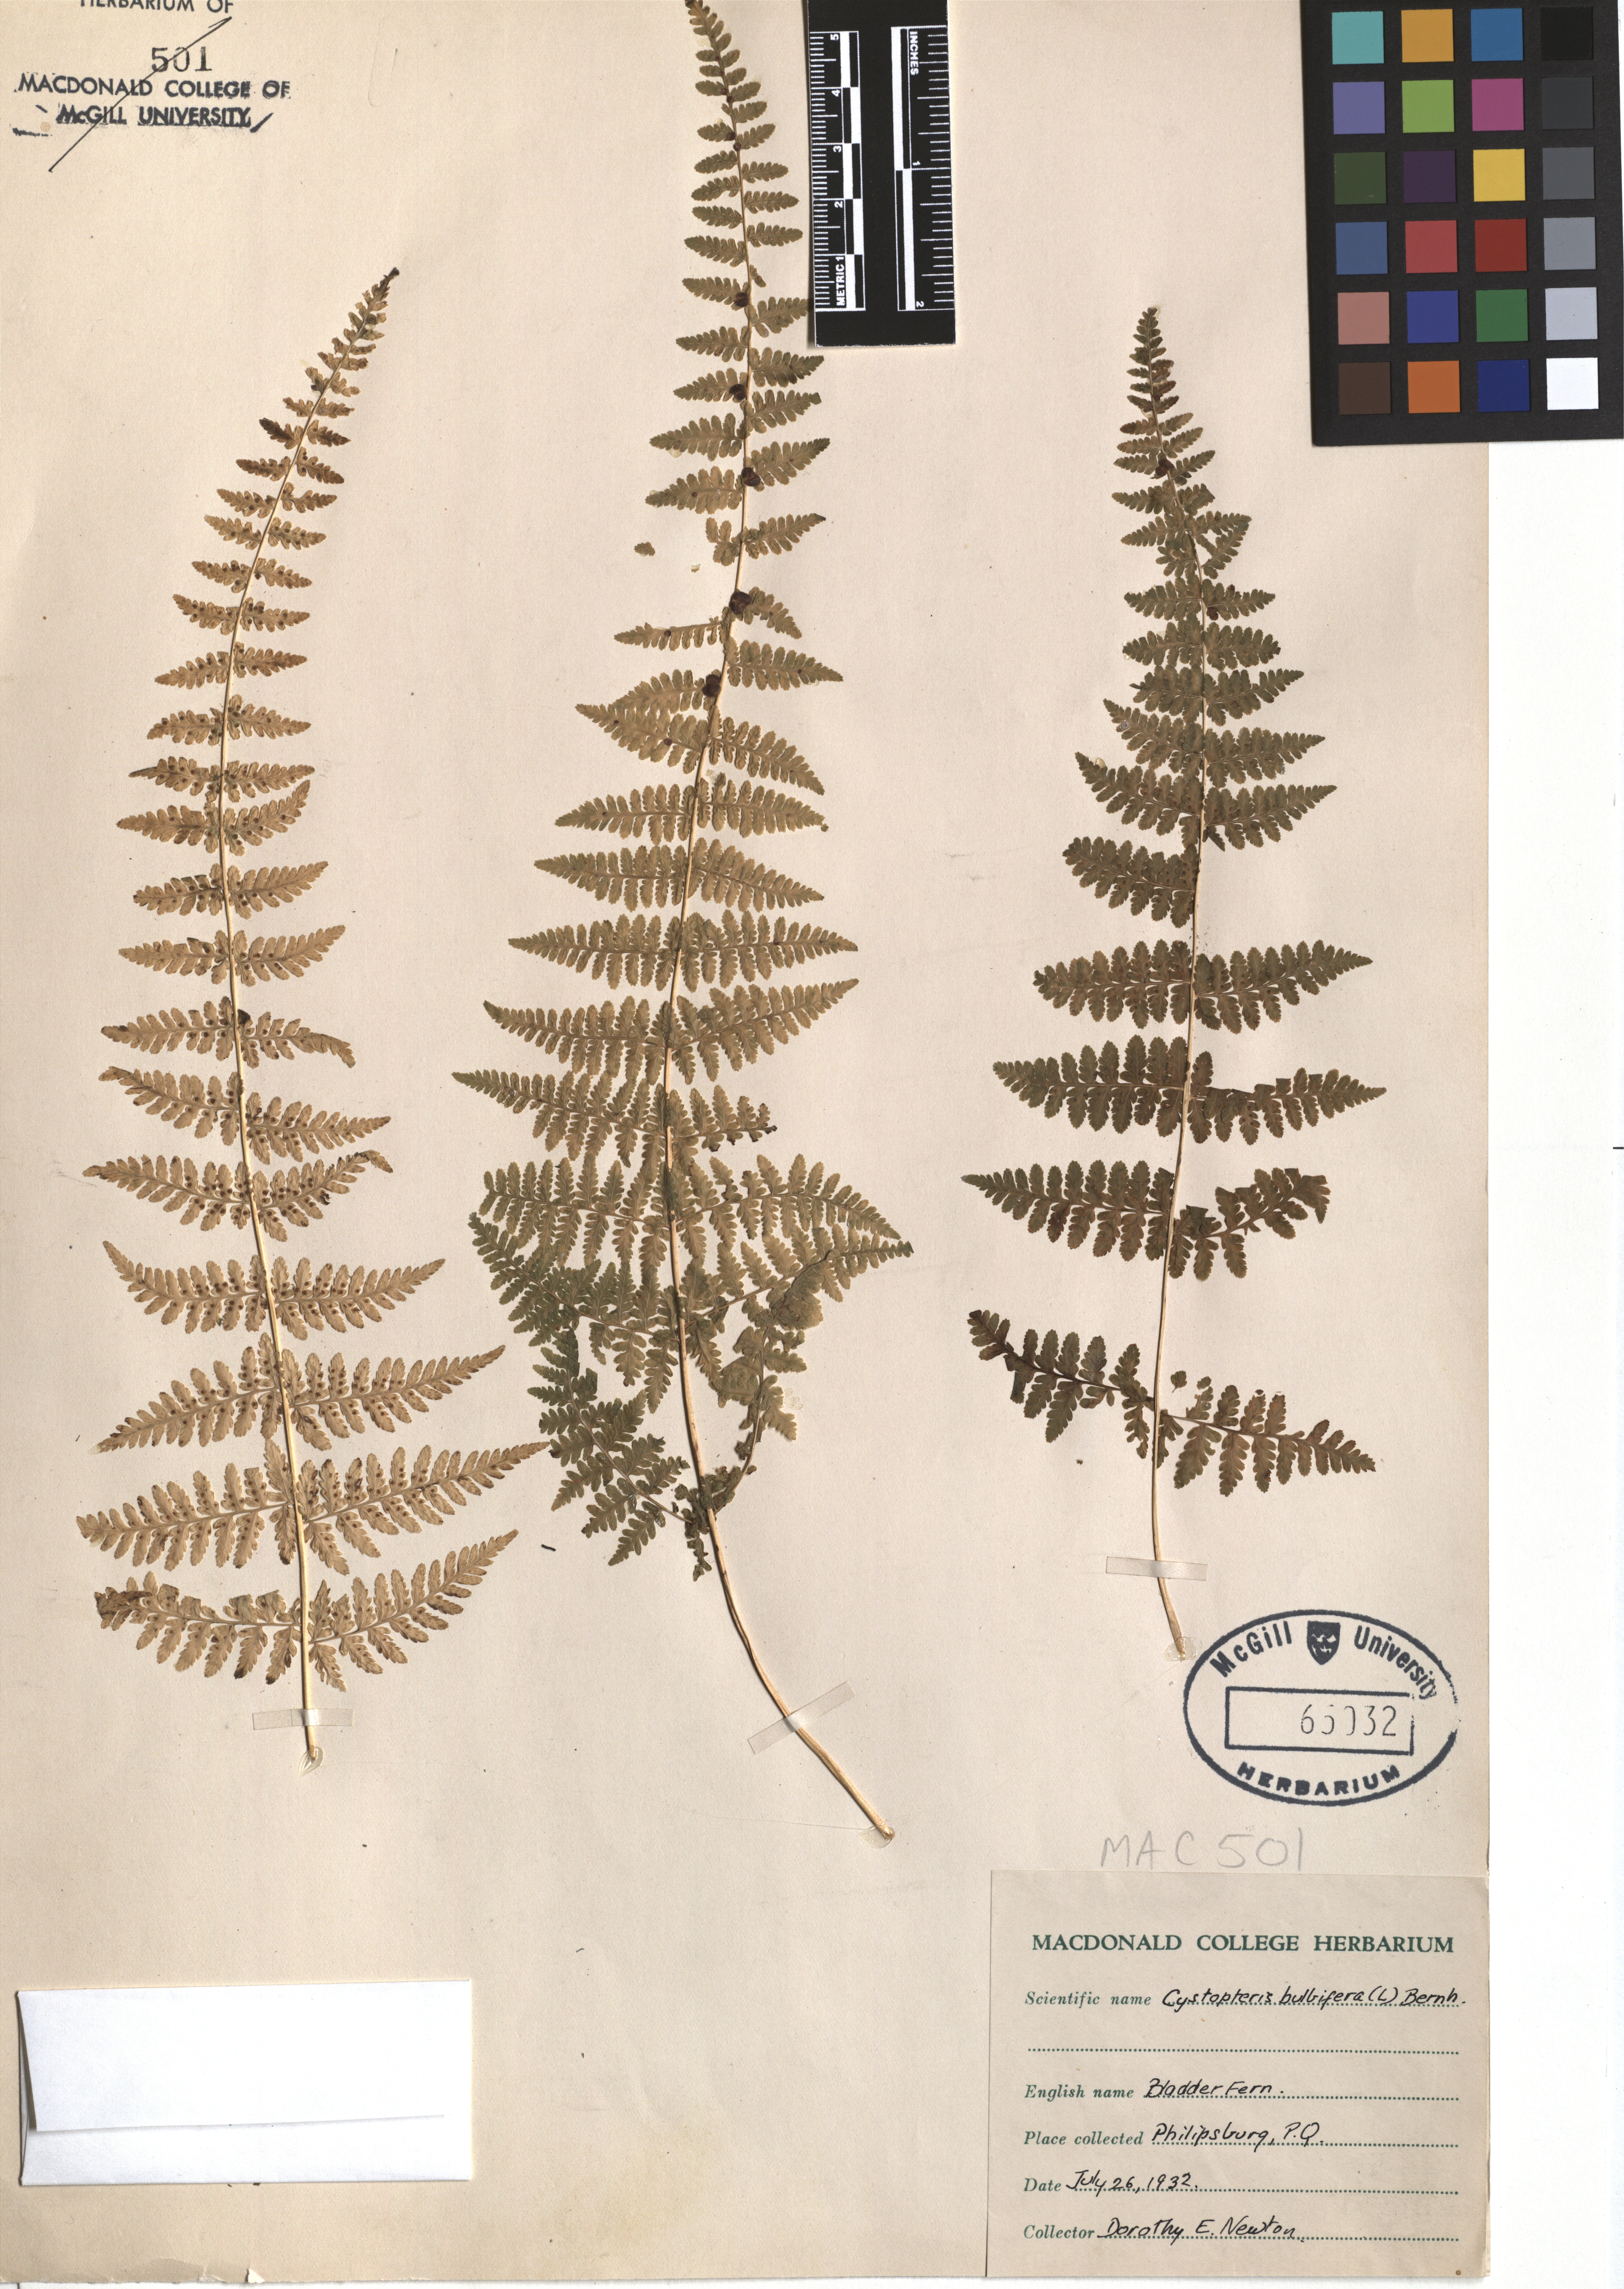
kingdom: Plantae
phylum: Tracheophyta
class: Polypodiopsida
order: Polypodiales
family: Cystopteridaceae
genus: Cystopteris
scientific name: Cystopteris bulbifera
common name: Bulblet bladder fern
